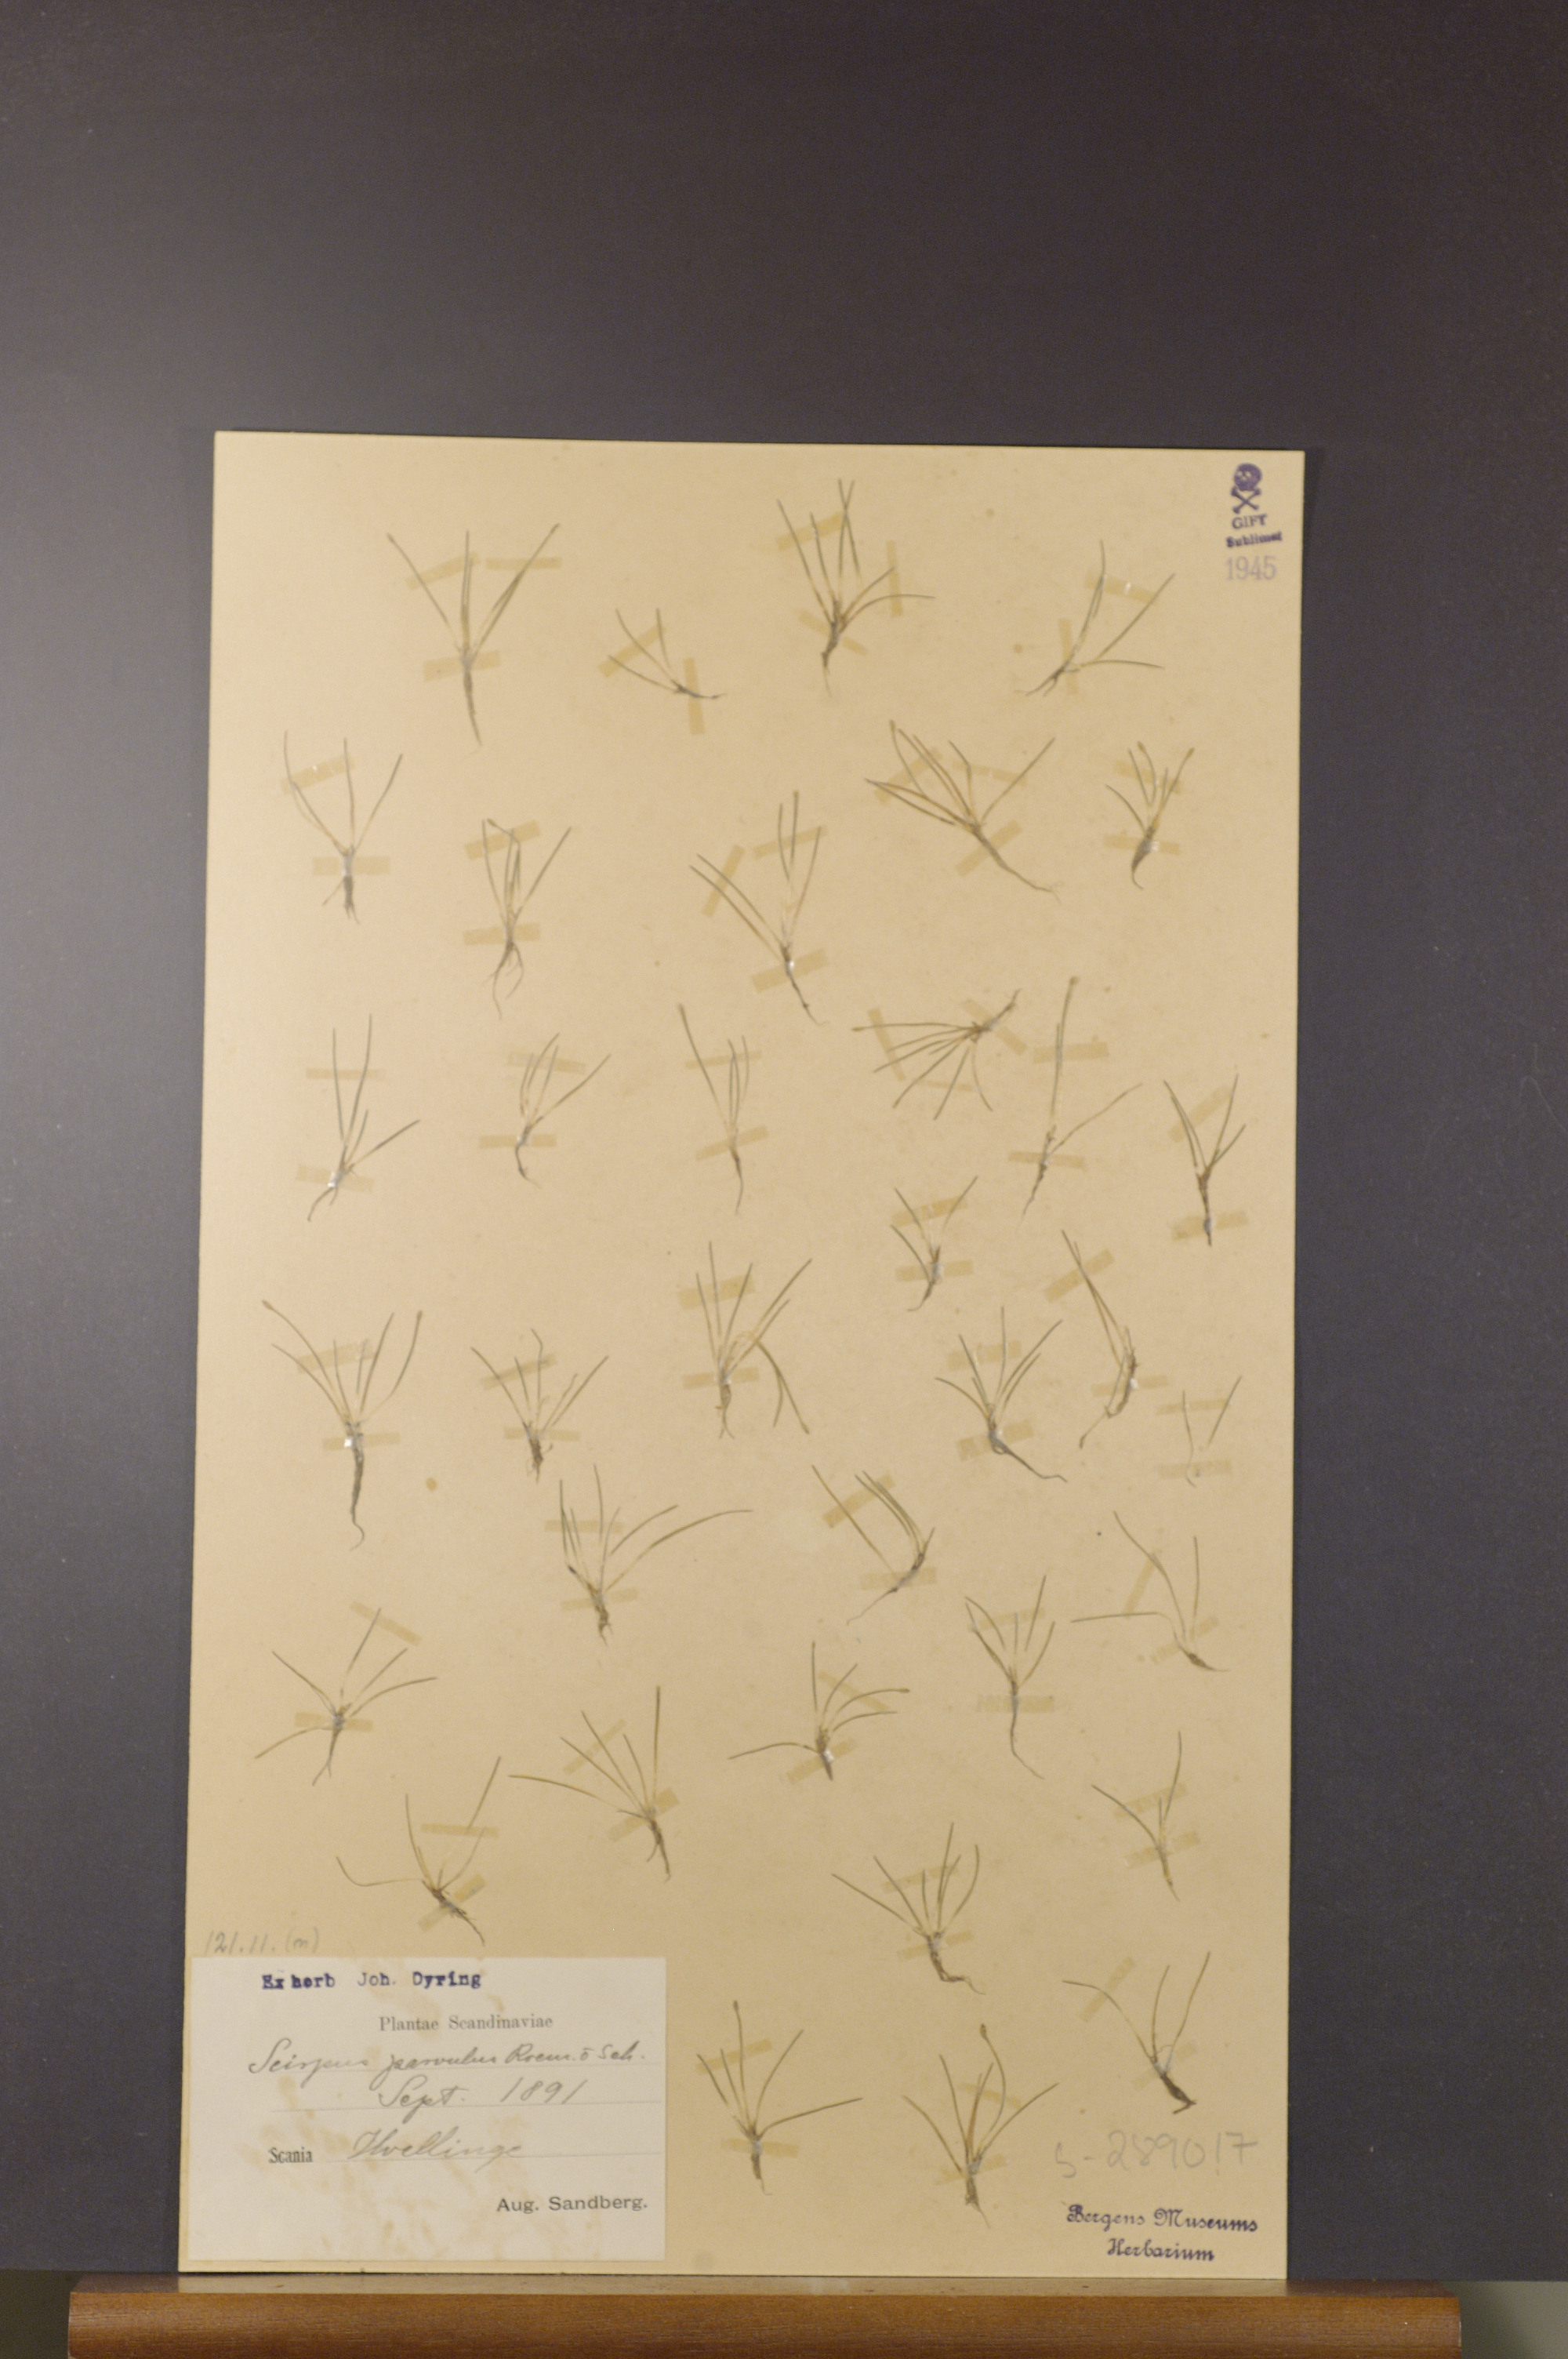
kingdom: Plantae
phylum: Tracheophyta
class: Liliopsida
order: Poales
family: Cyperaceae
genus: Eleocharis
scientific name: Eleocharis parvula
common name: Dwarf spike-rush
